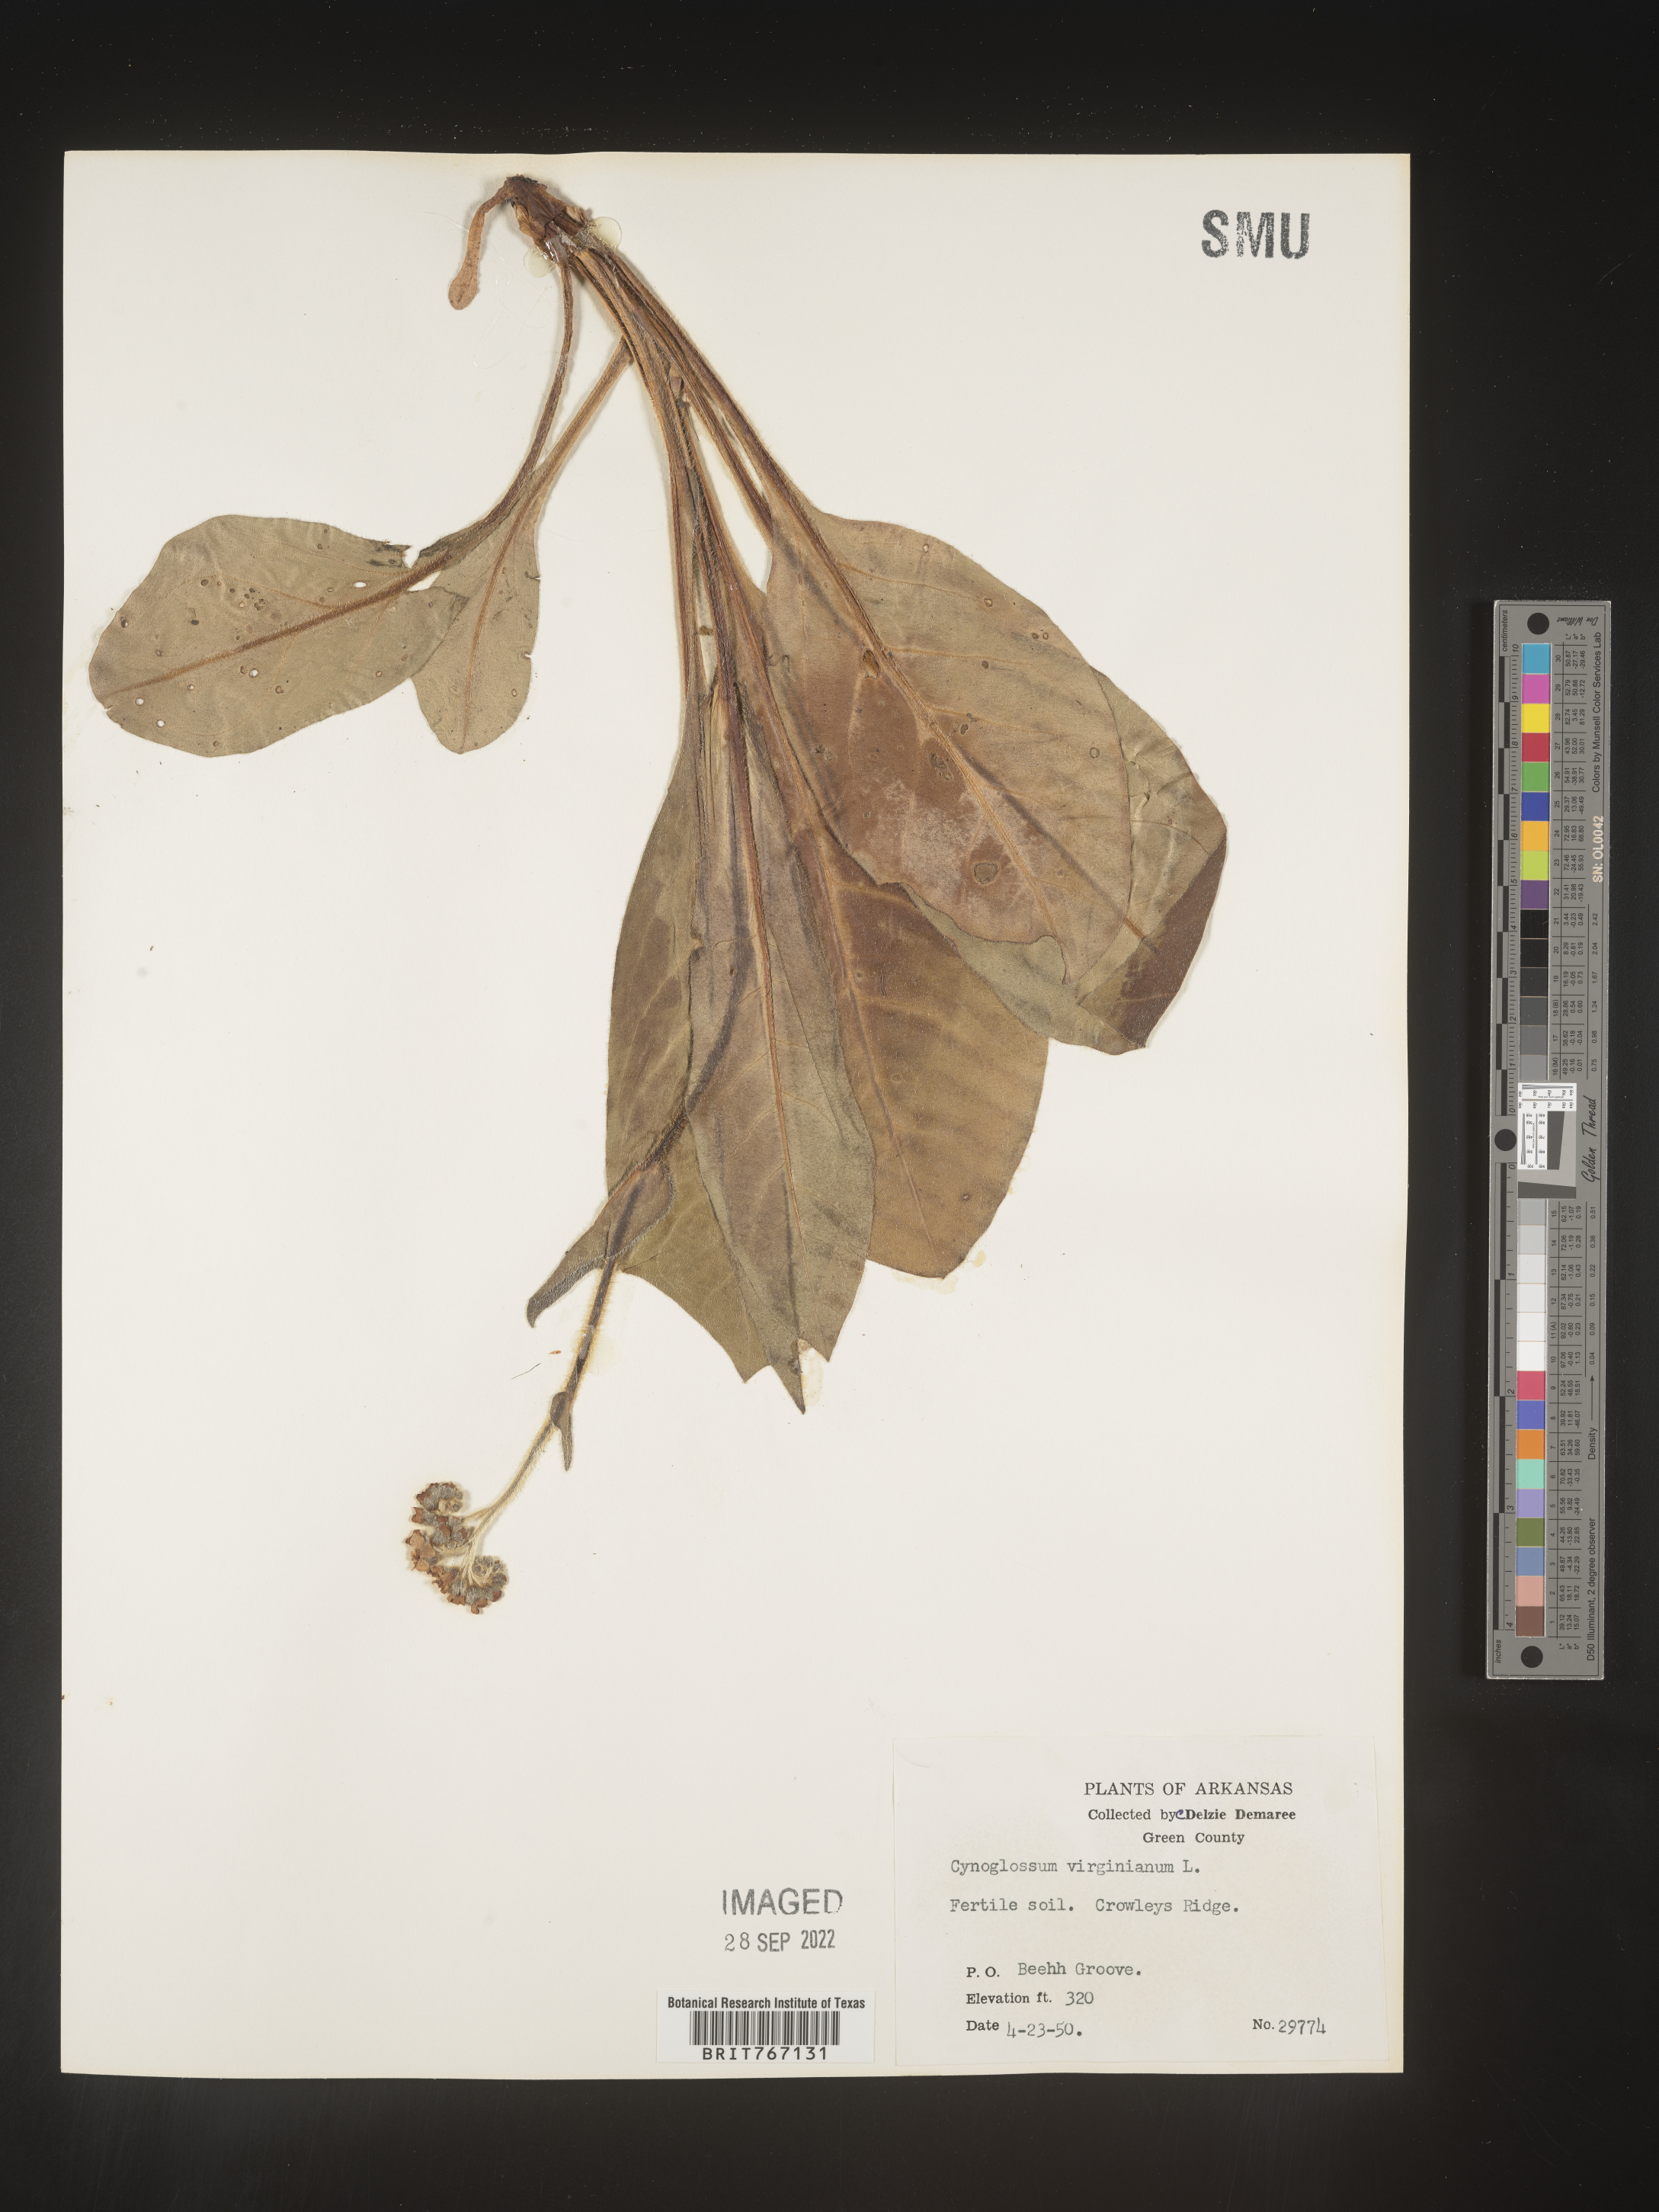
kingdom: Plantae
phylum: Tracheophyta
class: Magnoliopsida
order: Boraginales
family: Boraginaceae
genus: Andersonglossum
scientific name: Andersonglossum virginianum
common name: Wild comfrey
